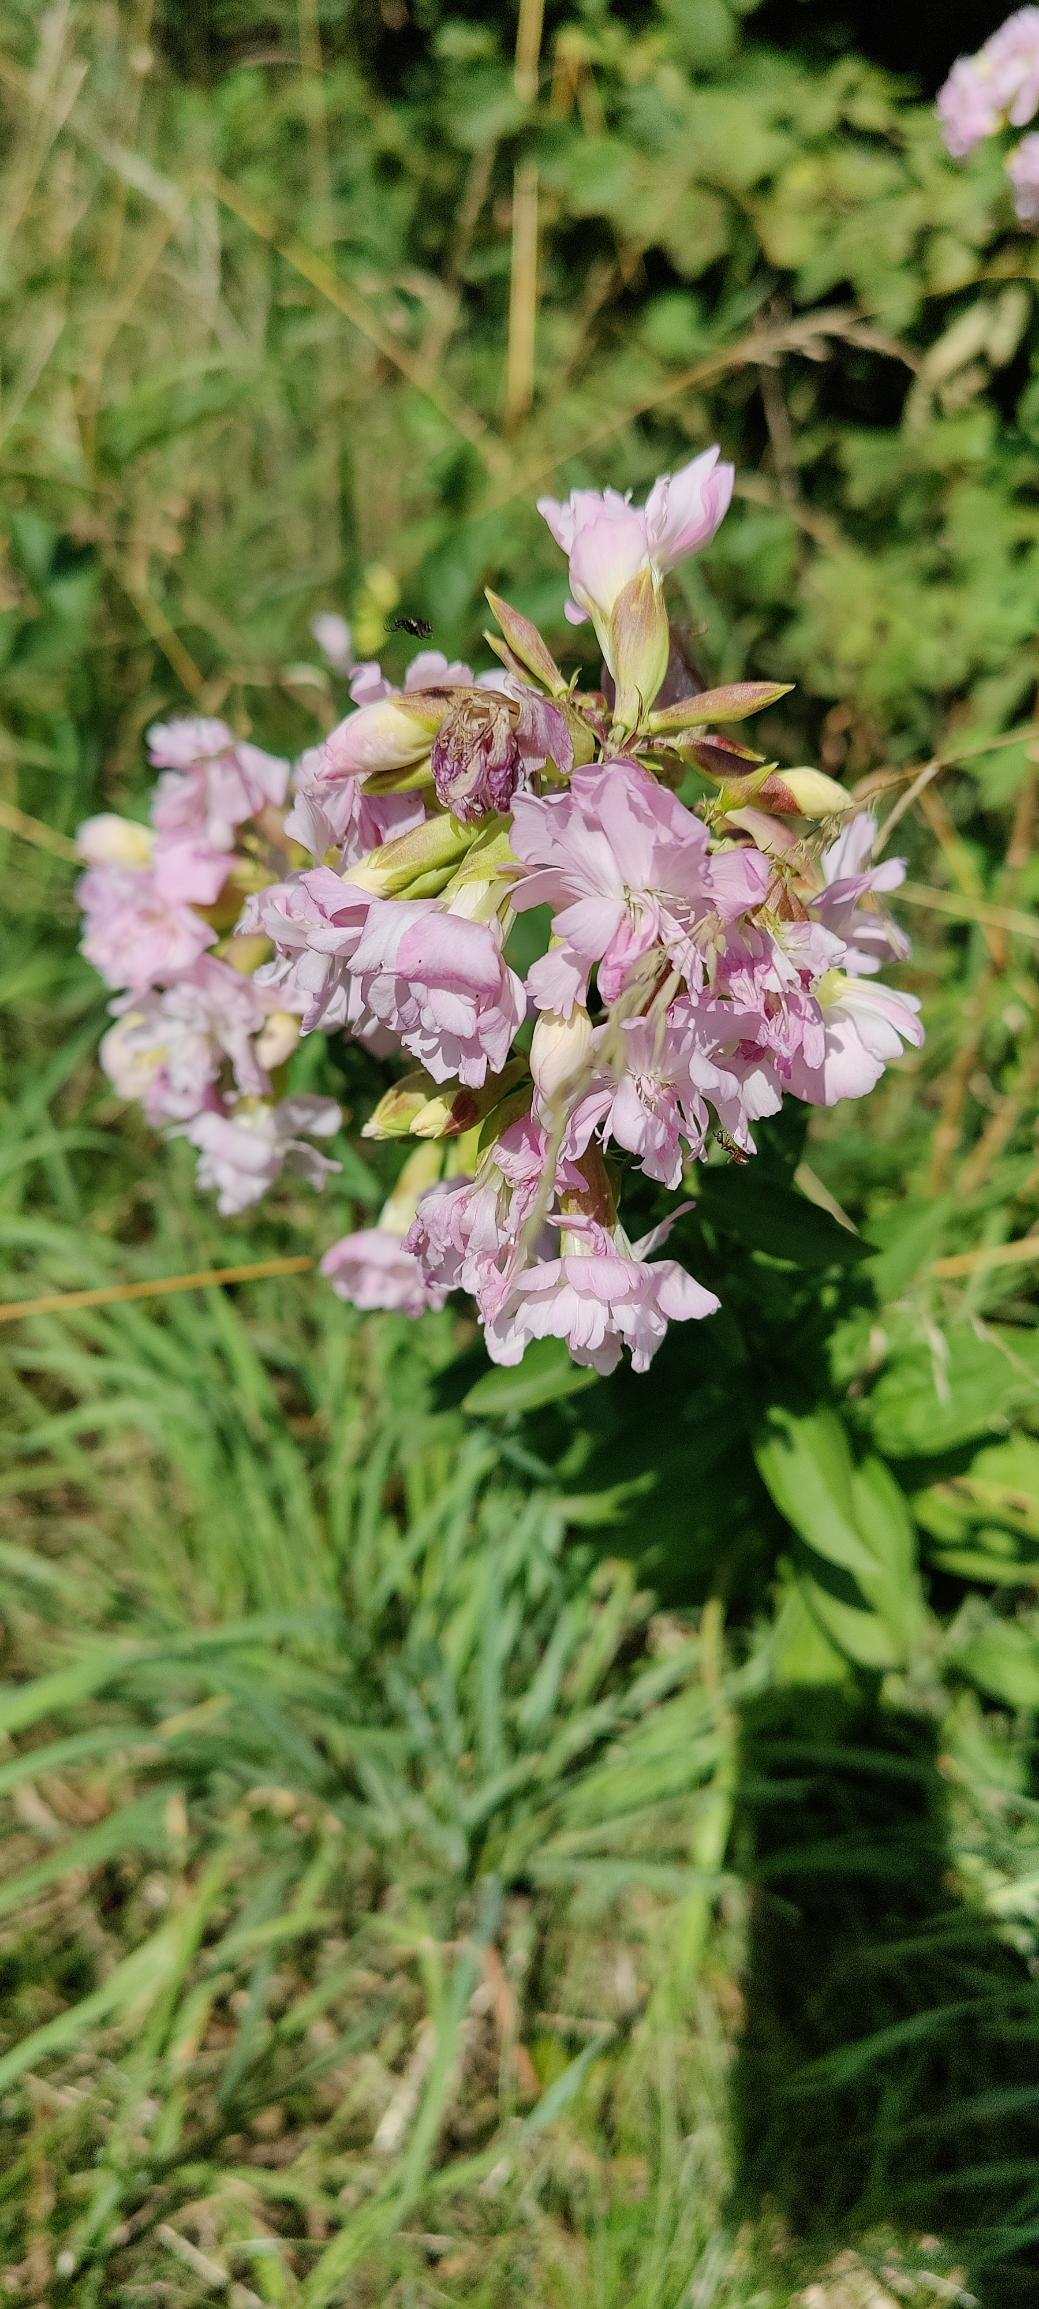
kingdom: Plantae
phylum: Tracheophyta
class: Magnoliopsida
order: Caryophyllales
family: Caryophyllaceae
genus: Saponaria
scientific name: Saponaria officinalis
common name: Sæbeurt
